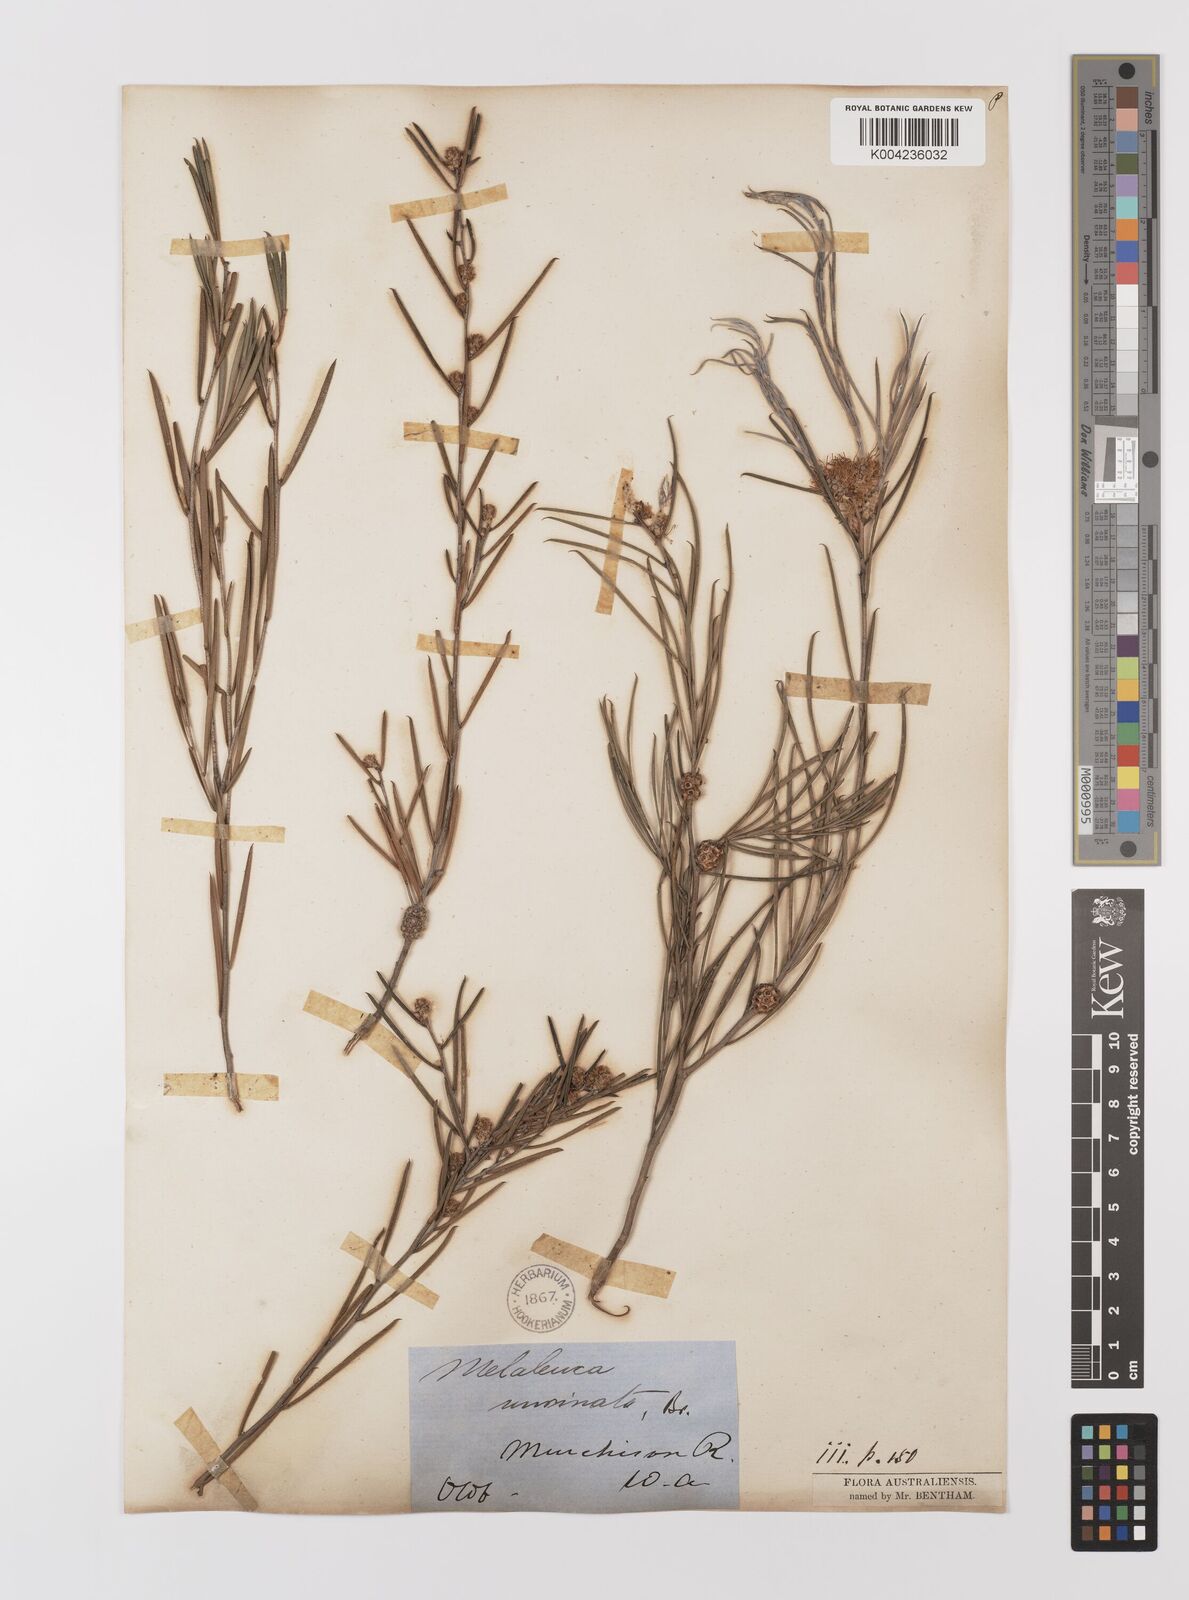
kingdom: Plantae
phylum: Tracheophyta
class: Magnoliopsida
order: Myrtales
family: Myrtaceae
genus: Melaleuca
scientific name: Melaleuca uncinata
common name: Broom honey myrtle
